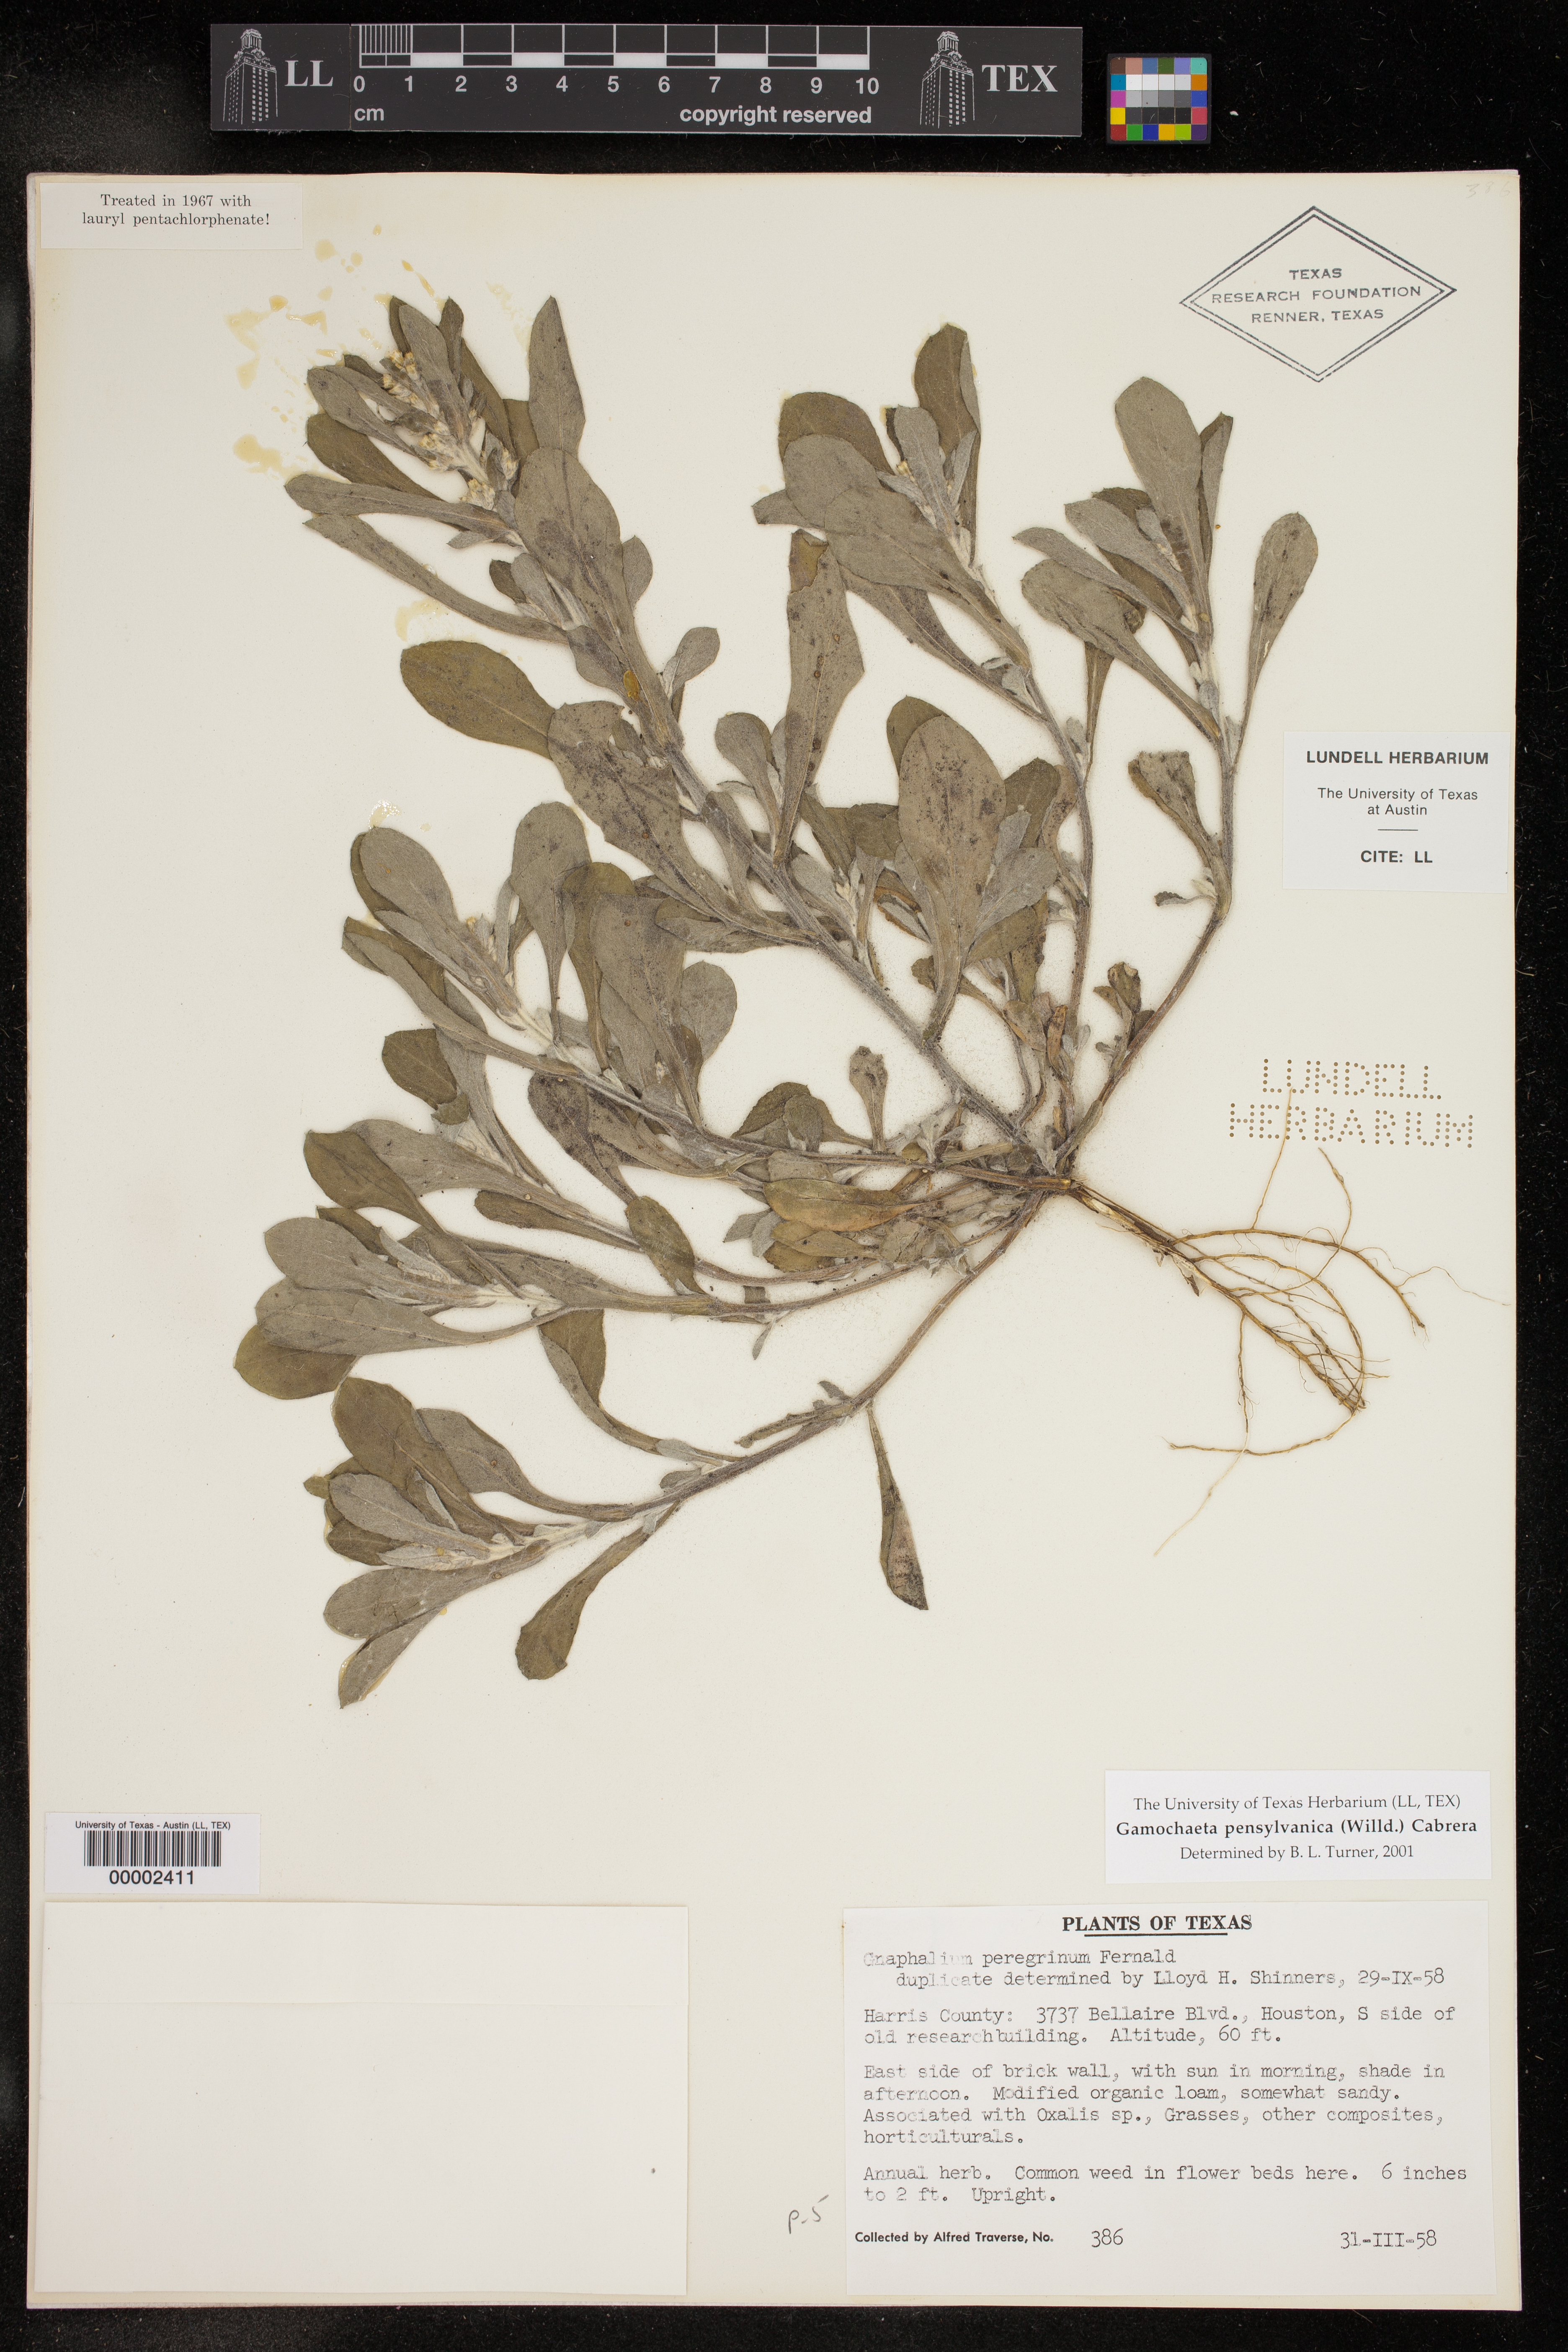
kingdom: Plantae
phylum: Tracheophyta
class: Magnoliopsida
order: Asterales
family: Asteraceae
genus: Gamochaeta
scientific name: Gamochaeta pensylvanica
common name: Pennsylvania everlasting
